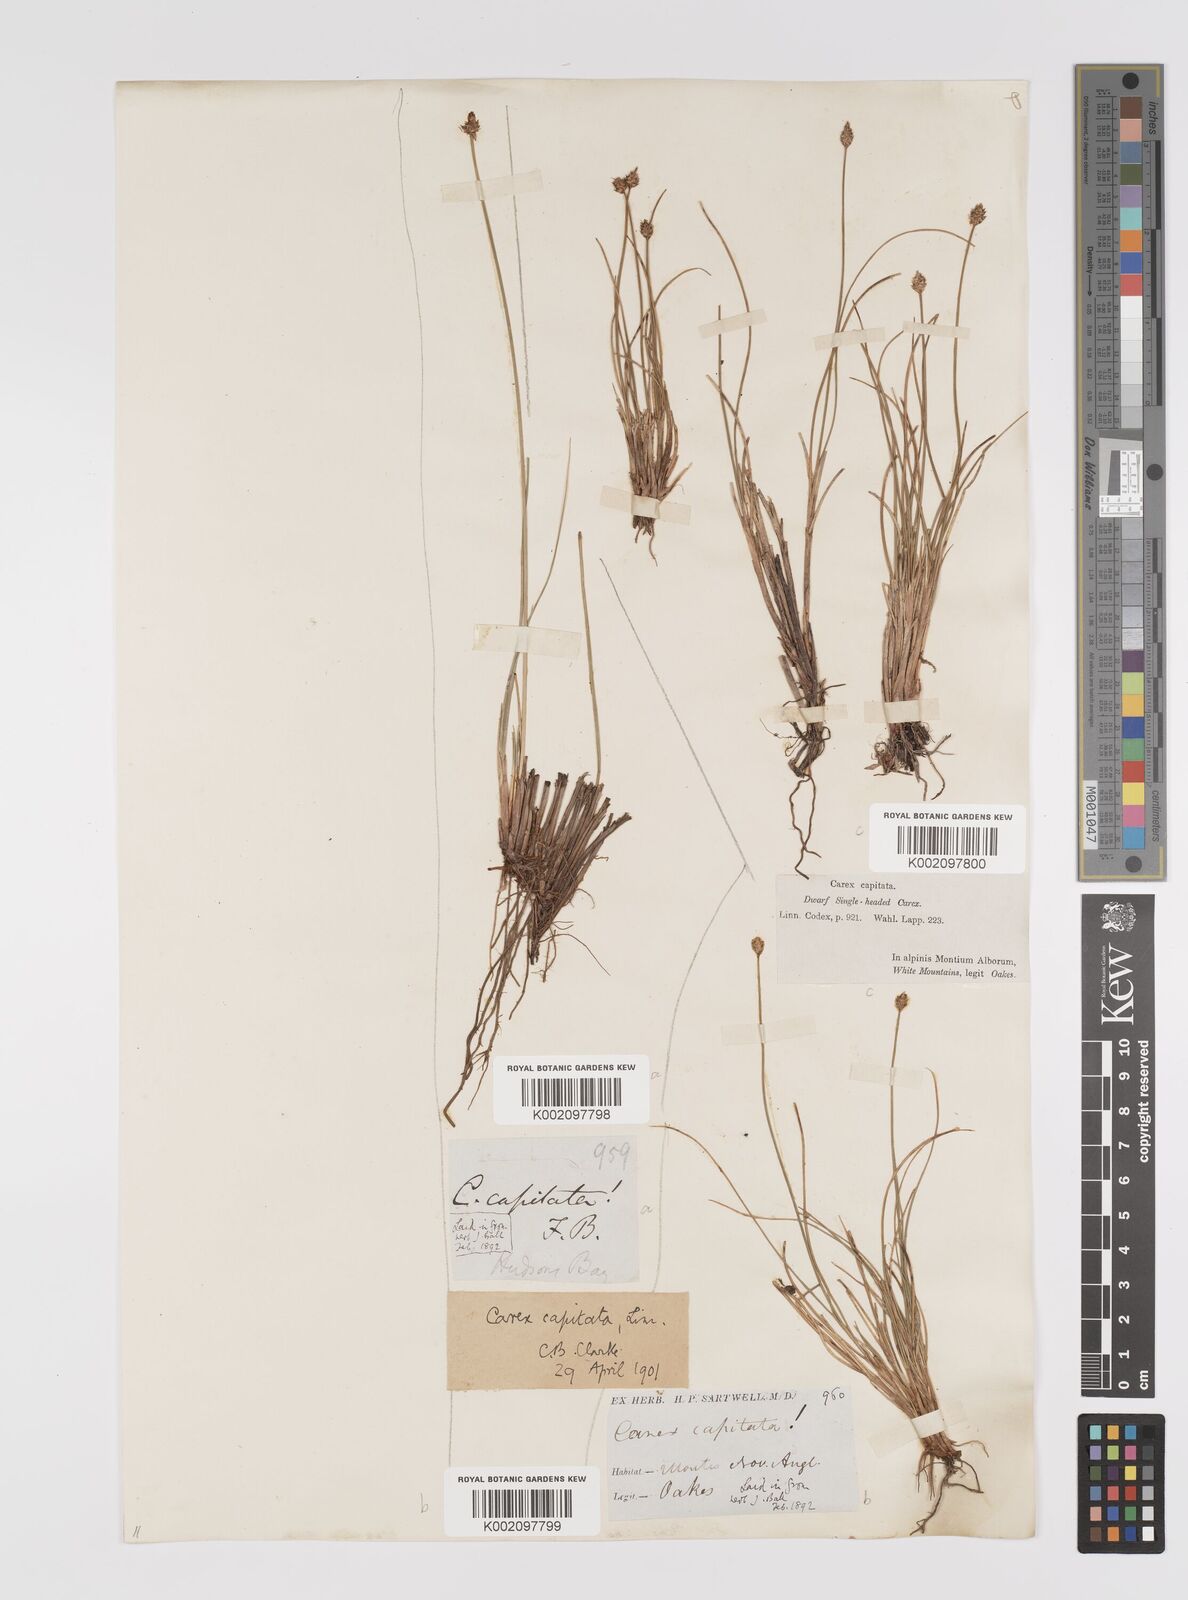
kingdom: Plantae
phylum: Tracheophyta
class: Liliopsida
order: Poales
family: Cyperaceae
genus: Carex
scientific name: Carex capitata
